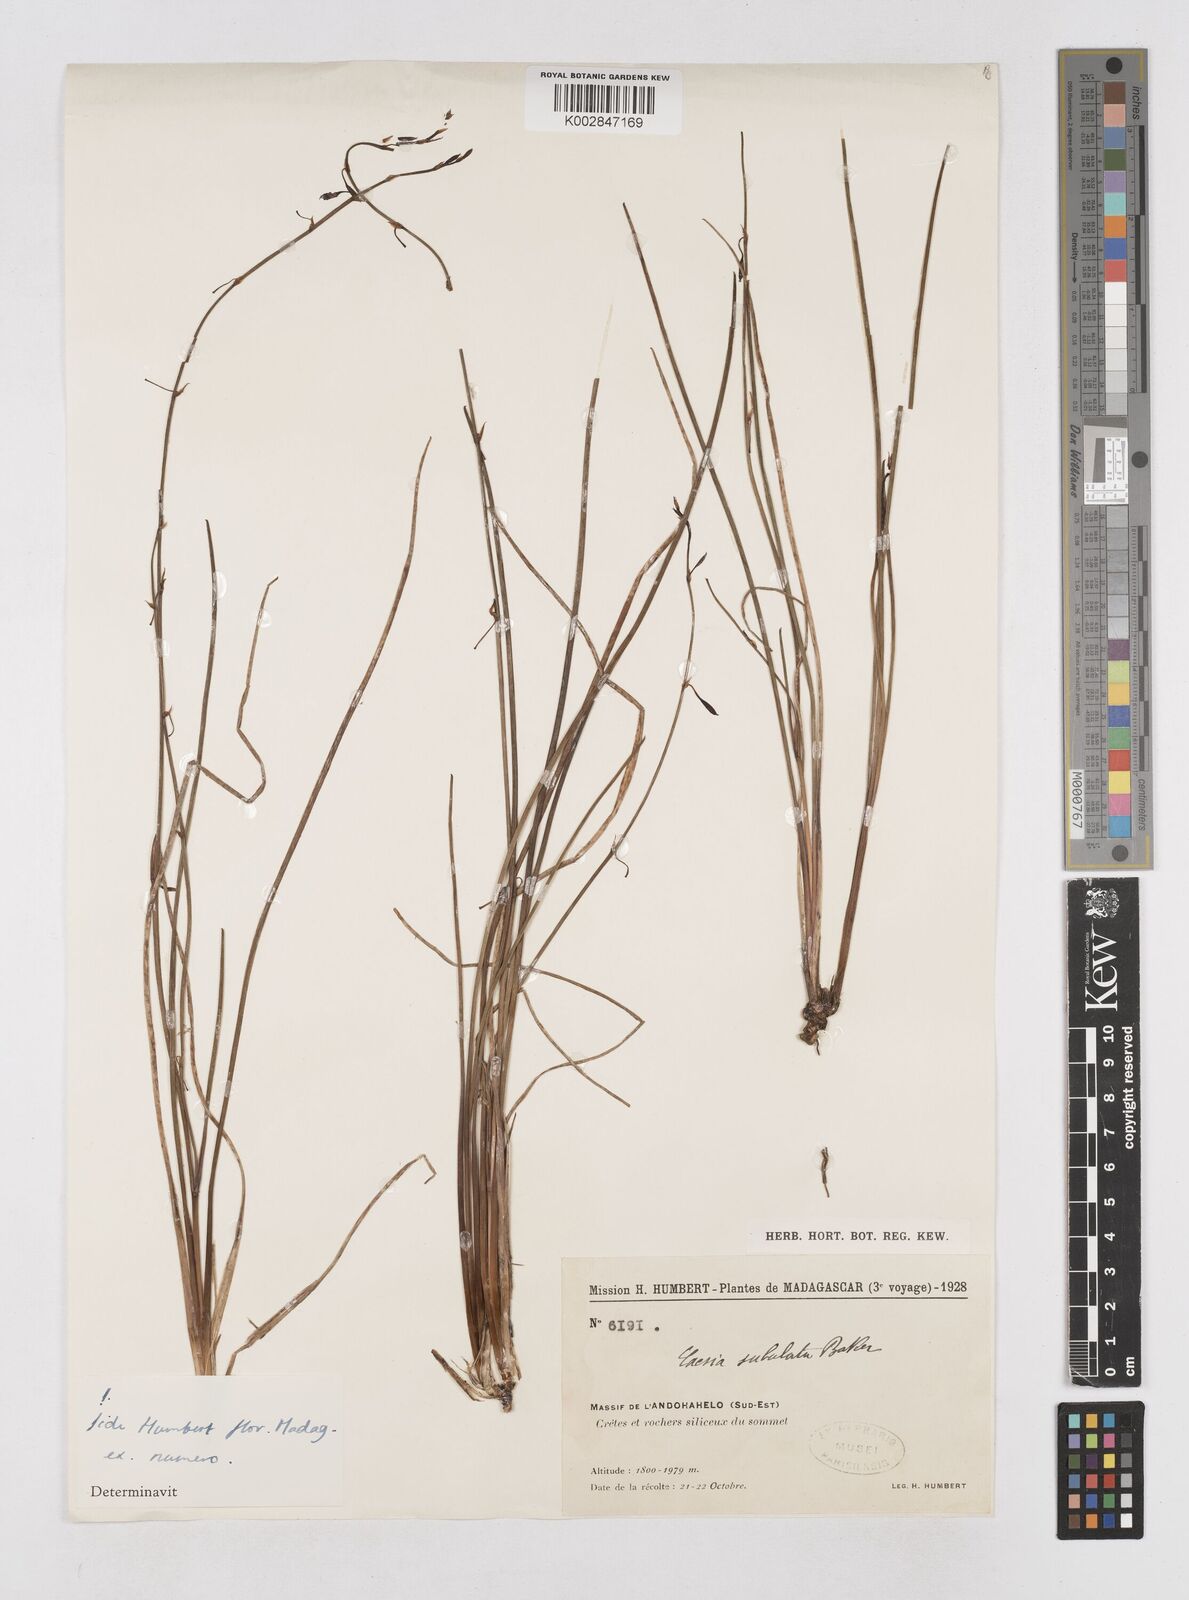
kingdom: Plantae
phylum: Tracheophyta
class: Liliopsida
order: Asparagales
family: Asphodelaceae
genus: Caesia
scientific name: Caesia subulata
